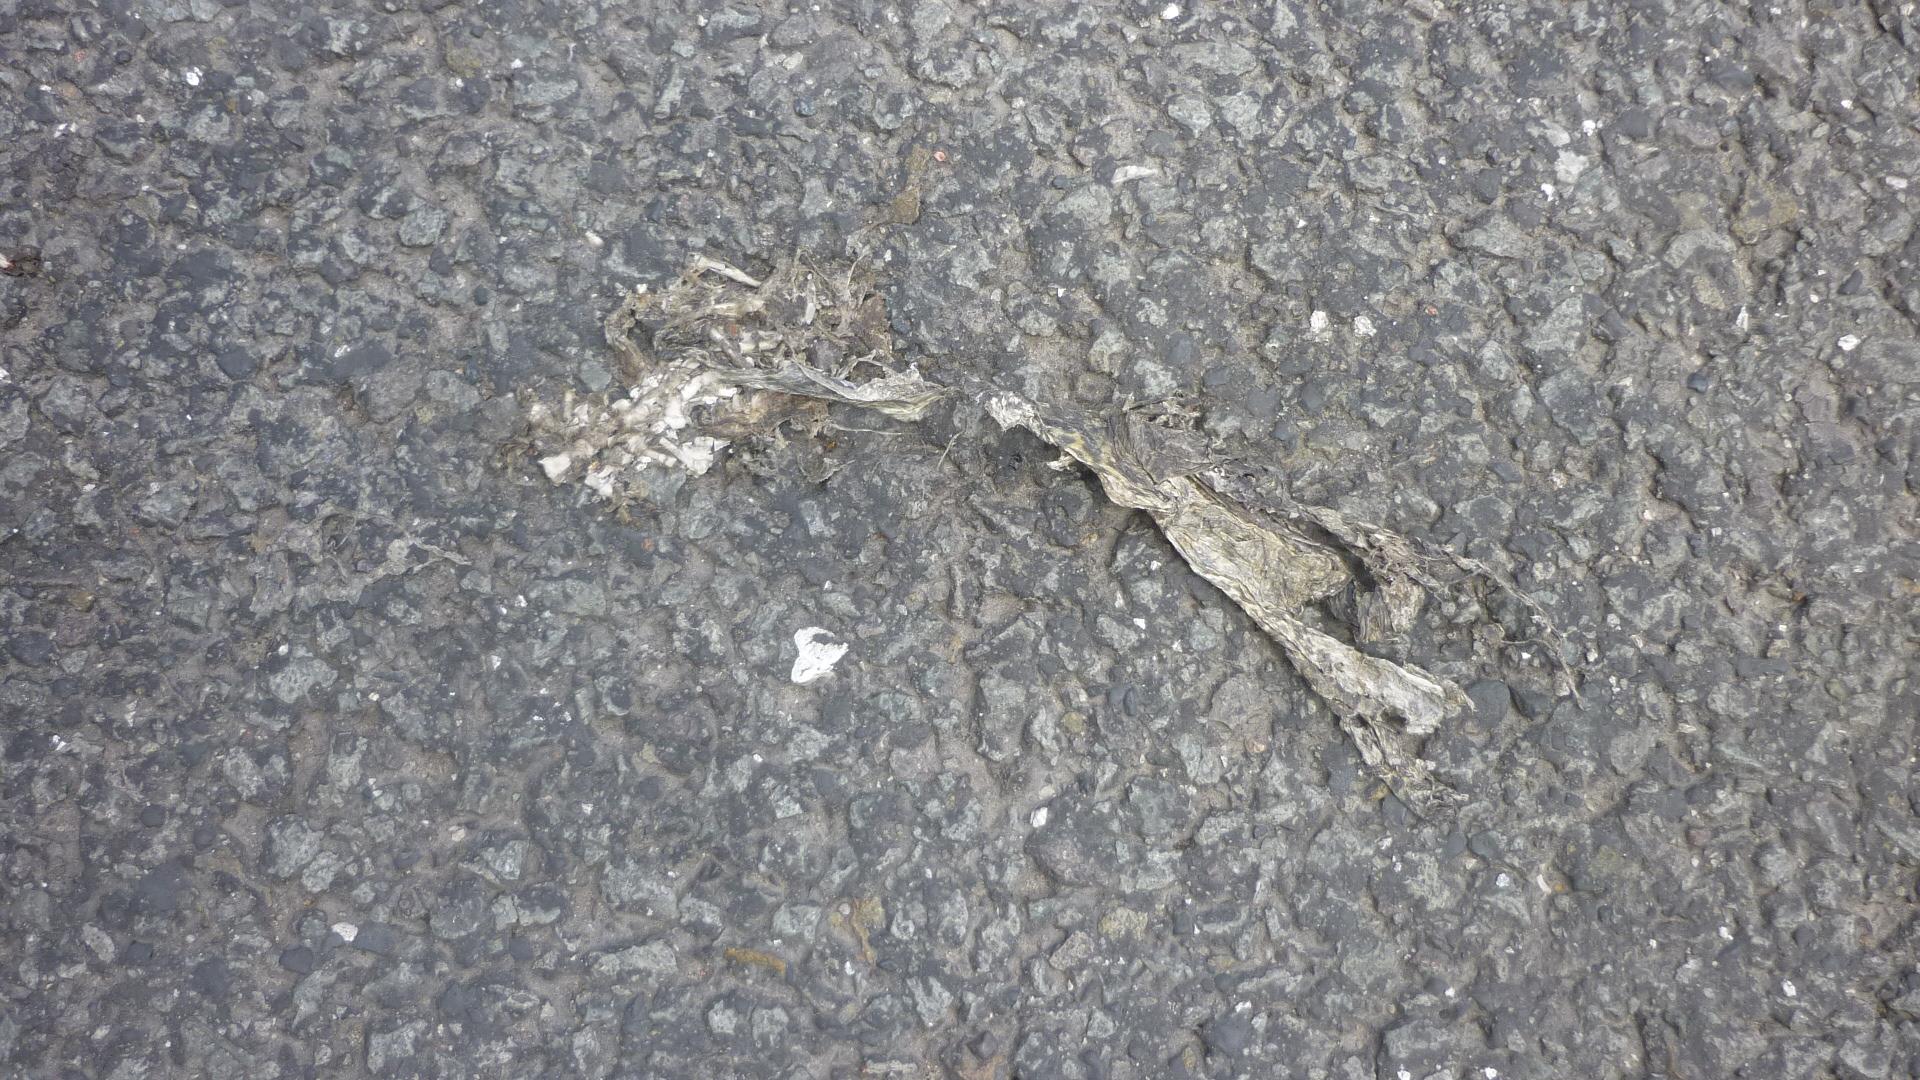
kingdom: Animalia
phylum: Chordata
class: Amphibia
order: Anura
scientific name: Anura
